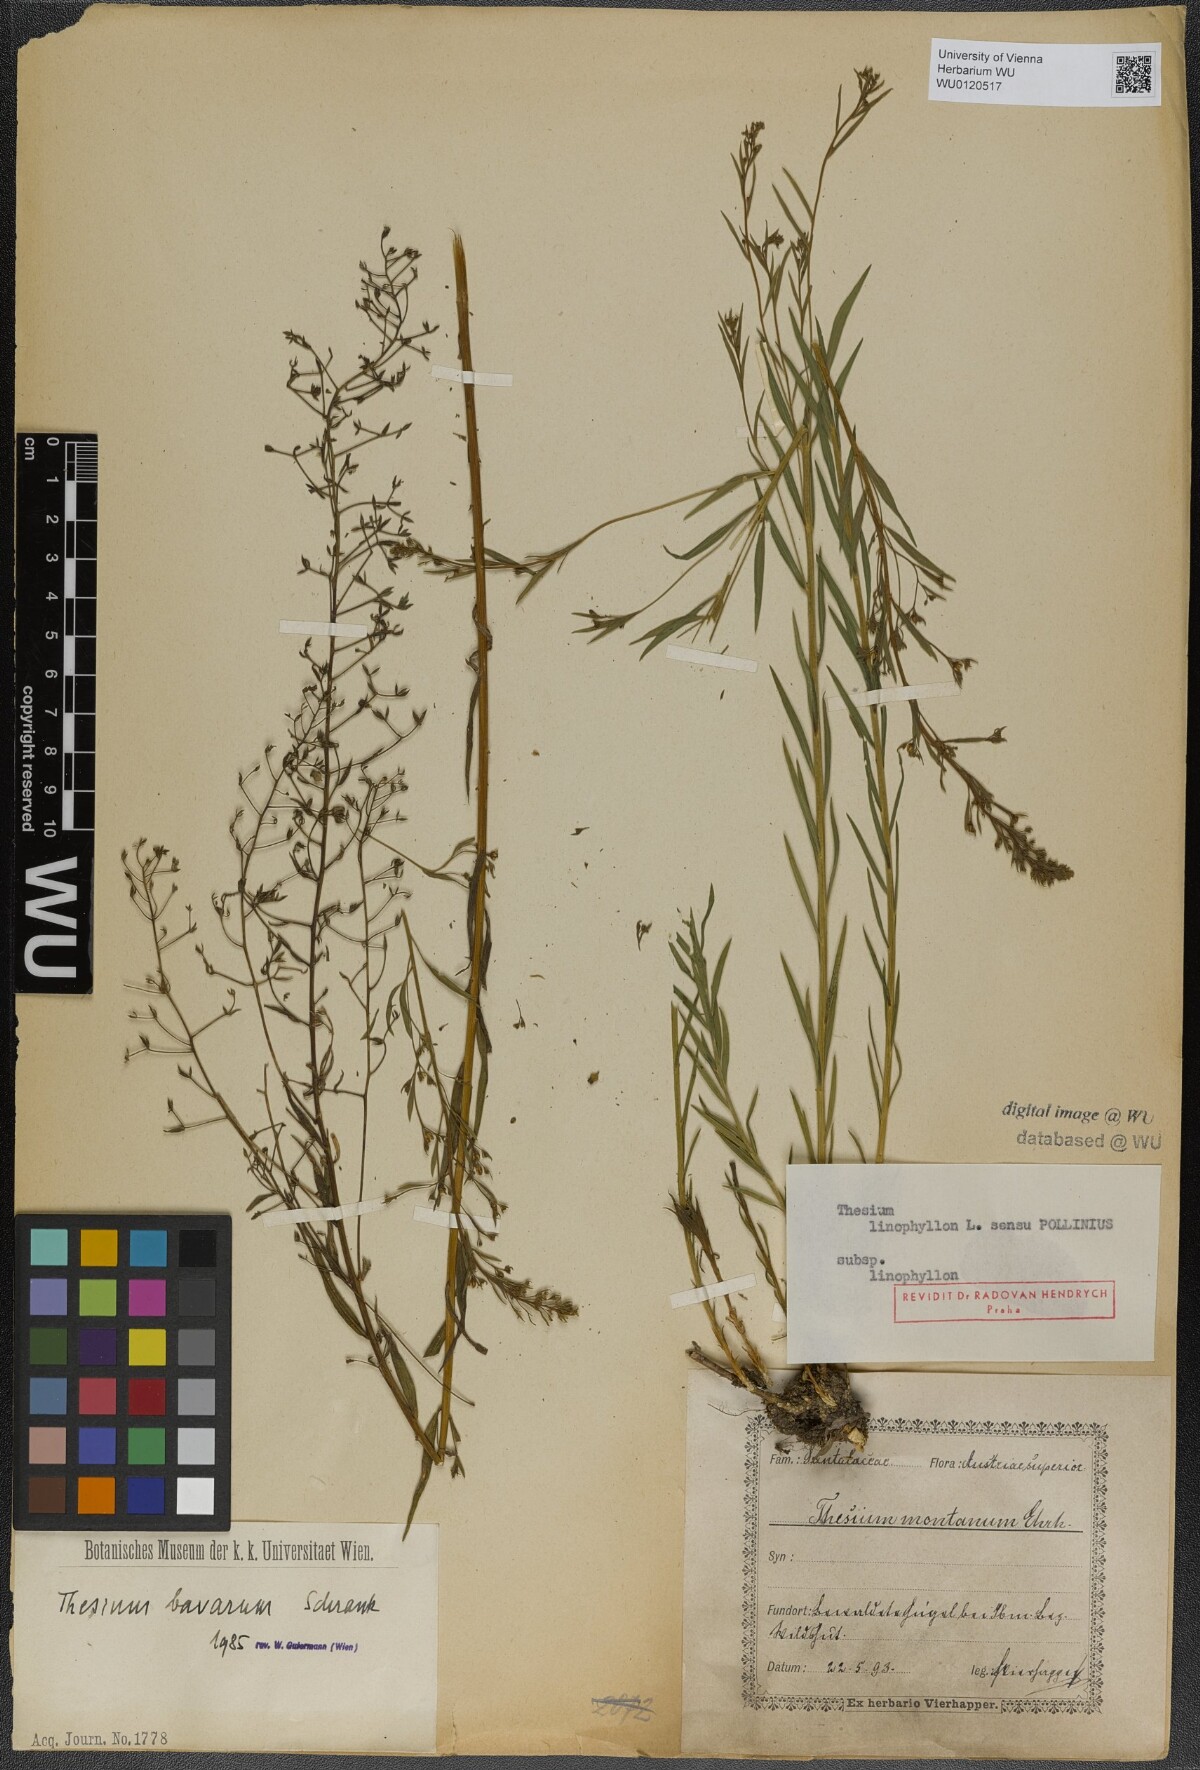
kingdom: Plantae
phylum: Tracheophyta
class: Magnoliopsida
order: Santalales
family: Thesiaceae
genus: Thesium
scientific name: Thesium bavarum
